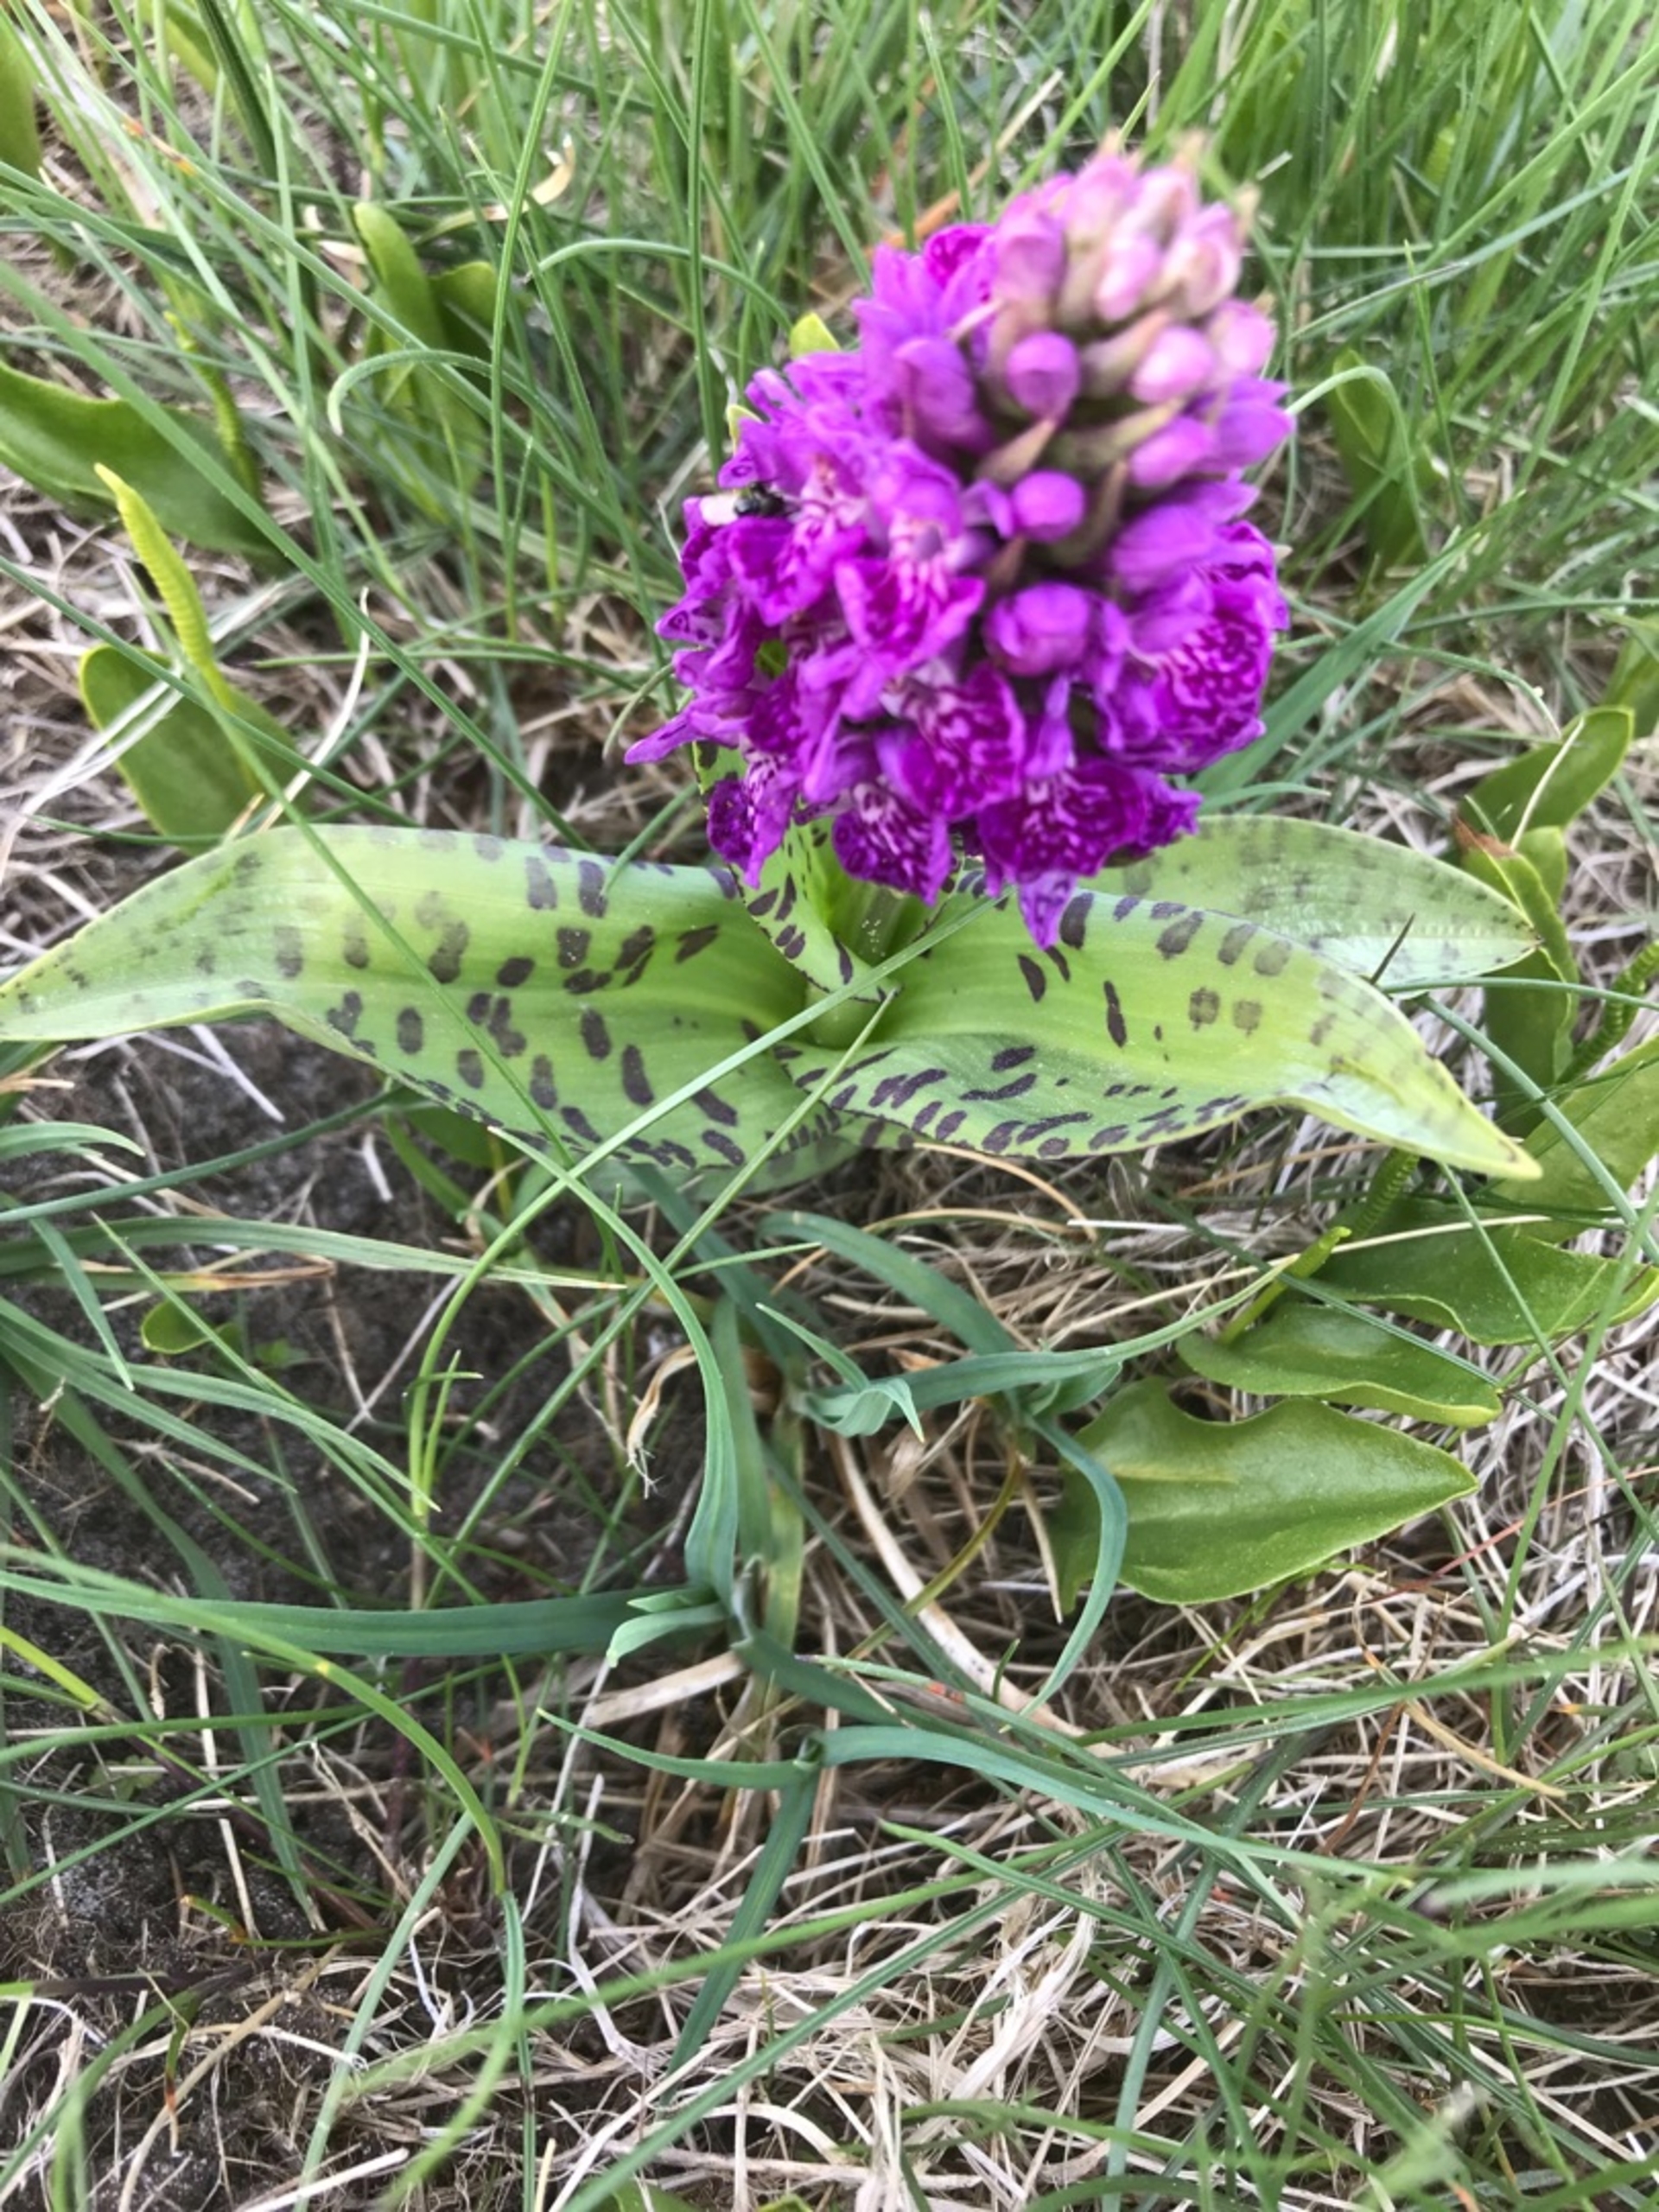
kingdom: Plantae
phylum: Tracheophyta
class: Liliopsida
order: Asparagales
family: Orchidaceae
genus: Dactylorhiza
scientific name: Dactylorhiza majalis
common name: Vendsyssel-gøgeurt
